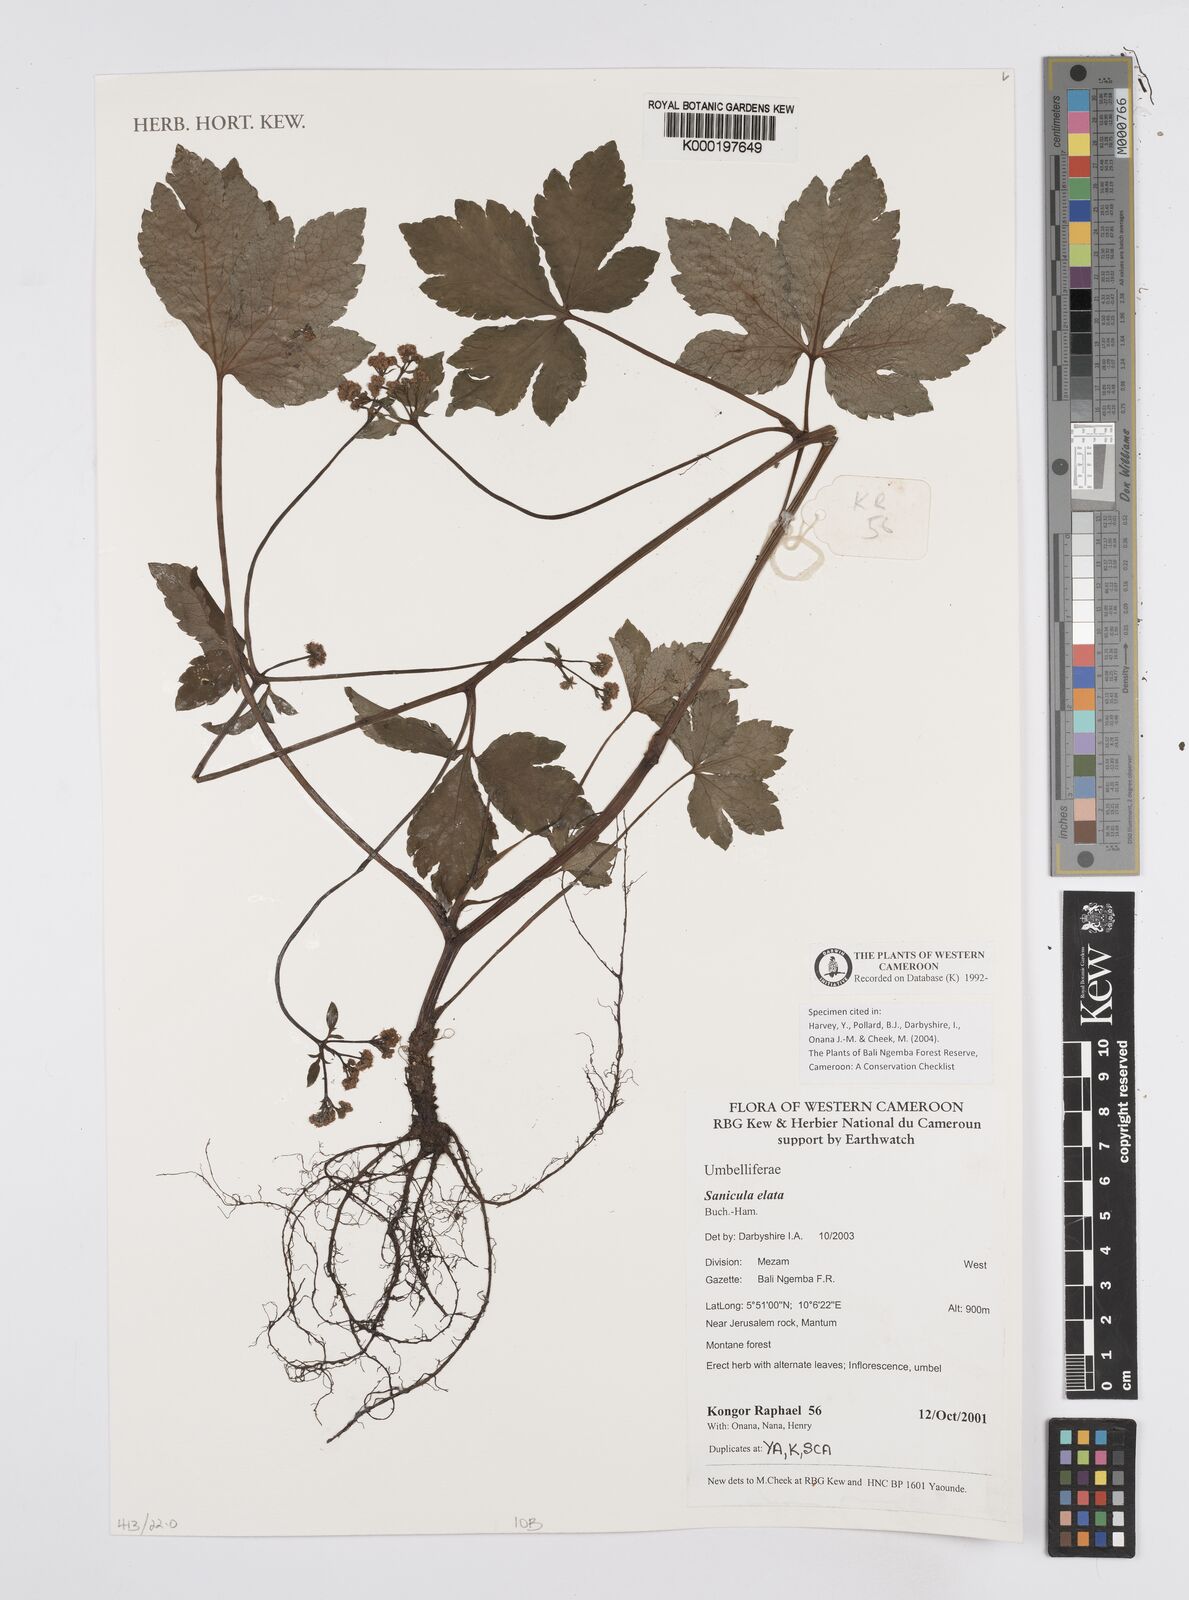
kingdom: Plantae
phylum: Tracheophyta
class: Magnoliopsida
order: Apiales
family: Apiaceae
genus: Sanicula
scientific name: Sanicula
